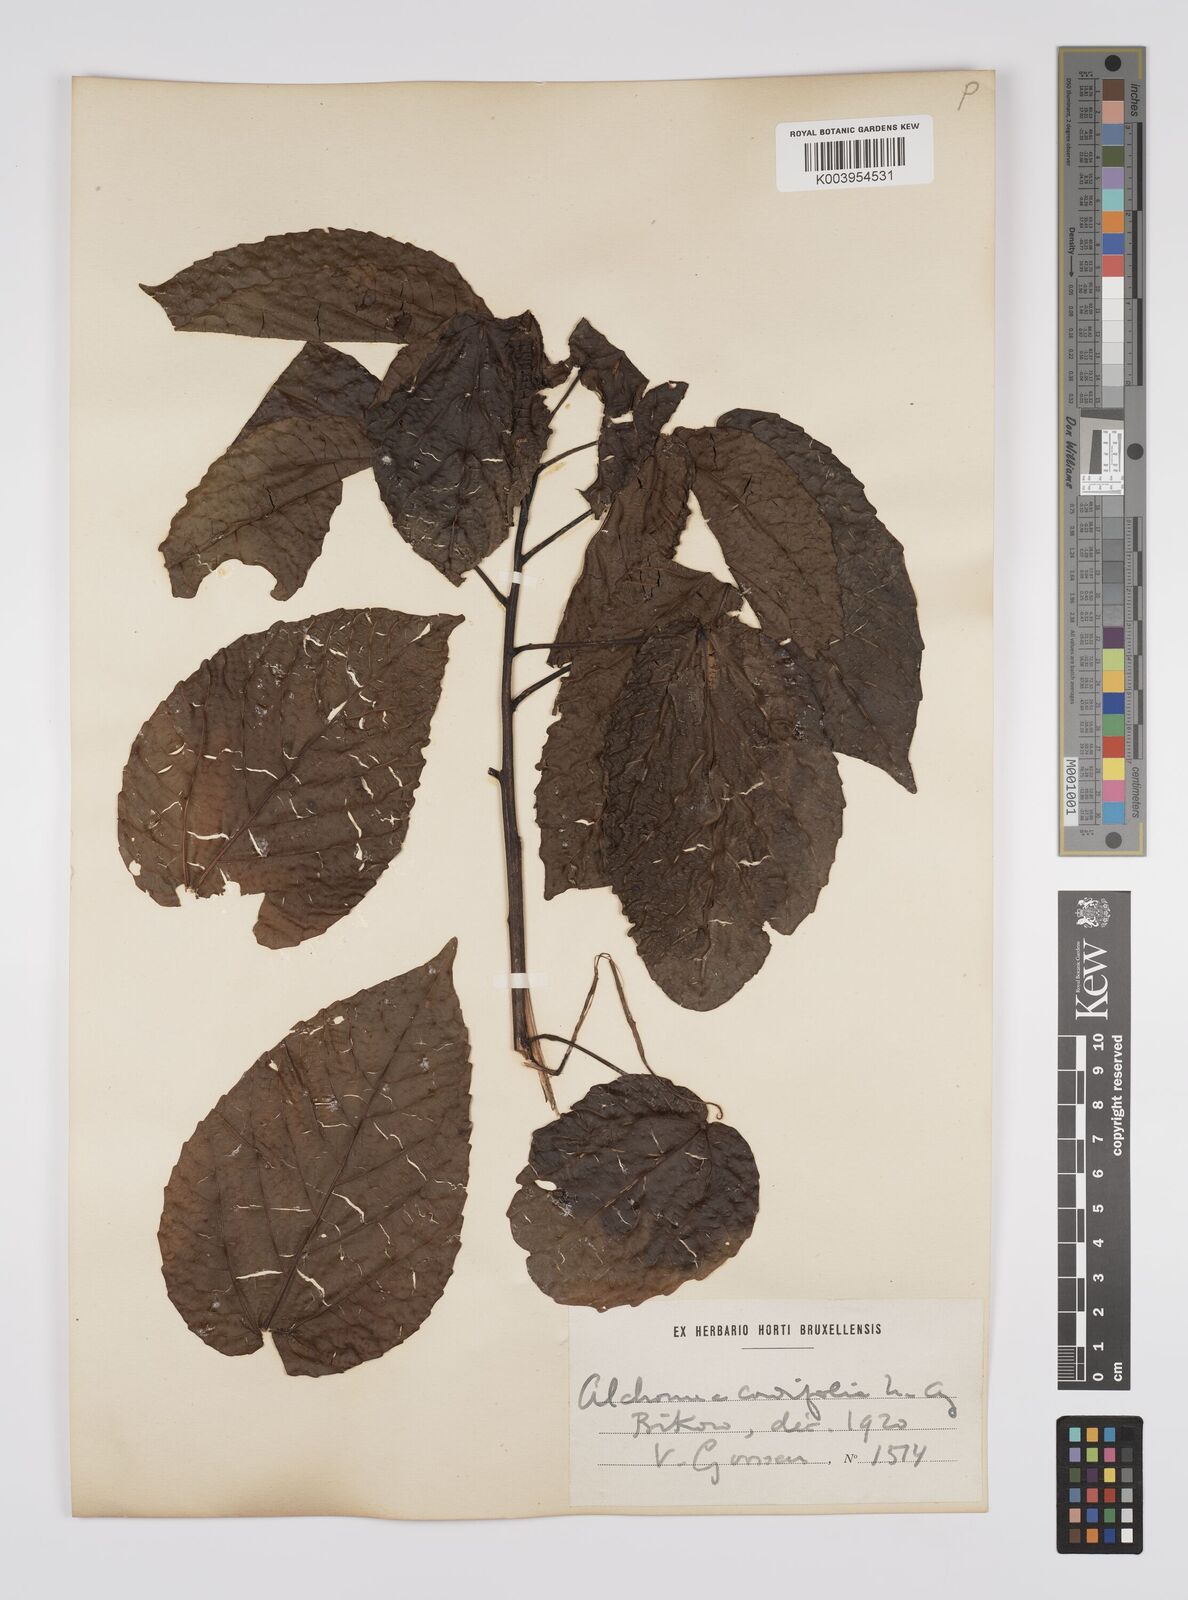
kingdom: Plantae
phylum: Tracheophyta
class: Magnoliopsida
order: Malpighiales
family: Euphorbiaceae
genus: Alchornea
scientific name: Alchornea cordifolia
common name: Christmasbush
